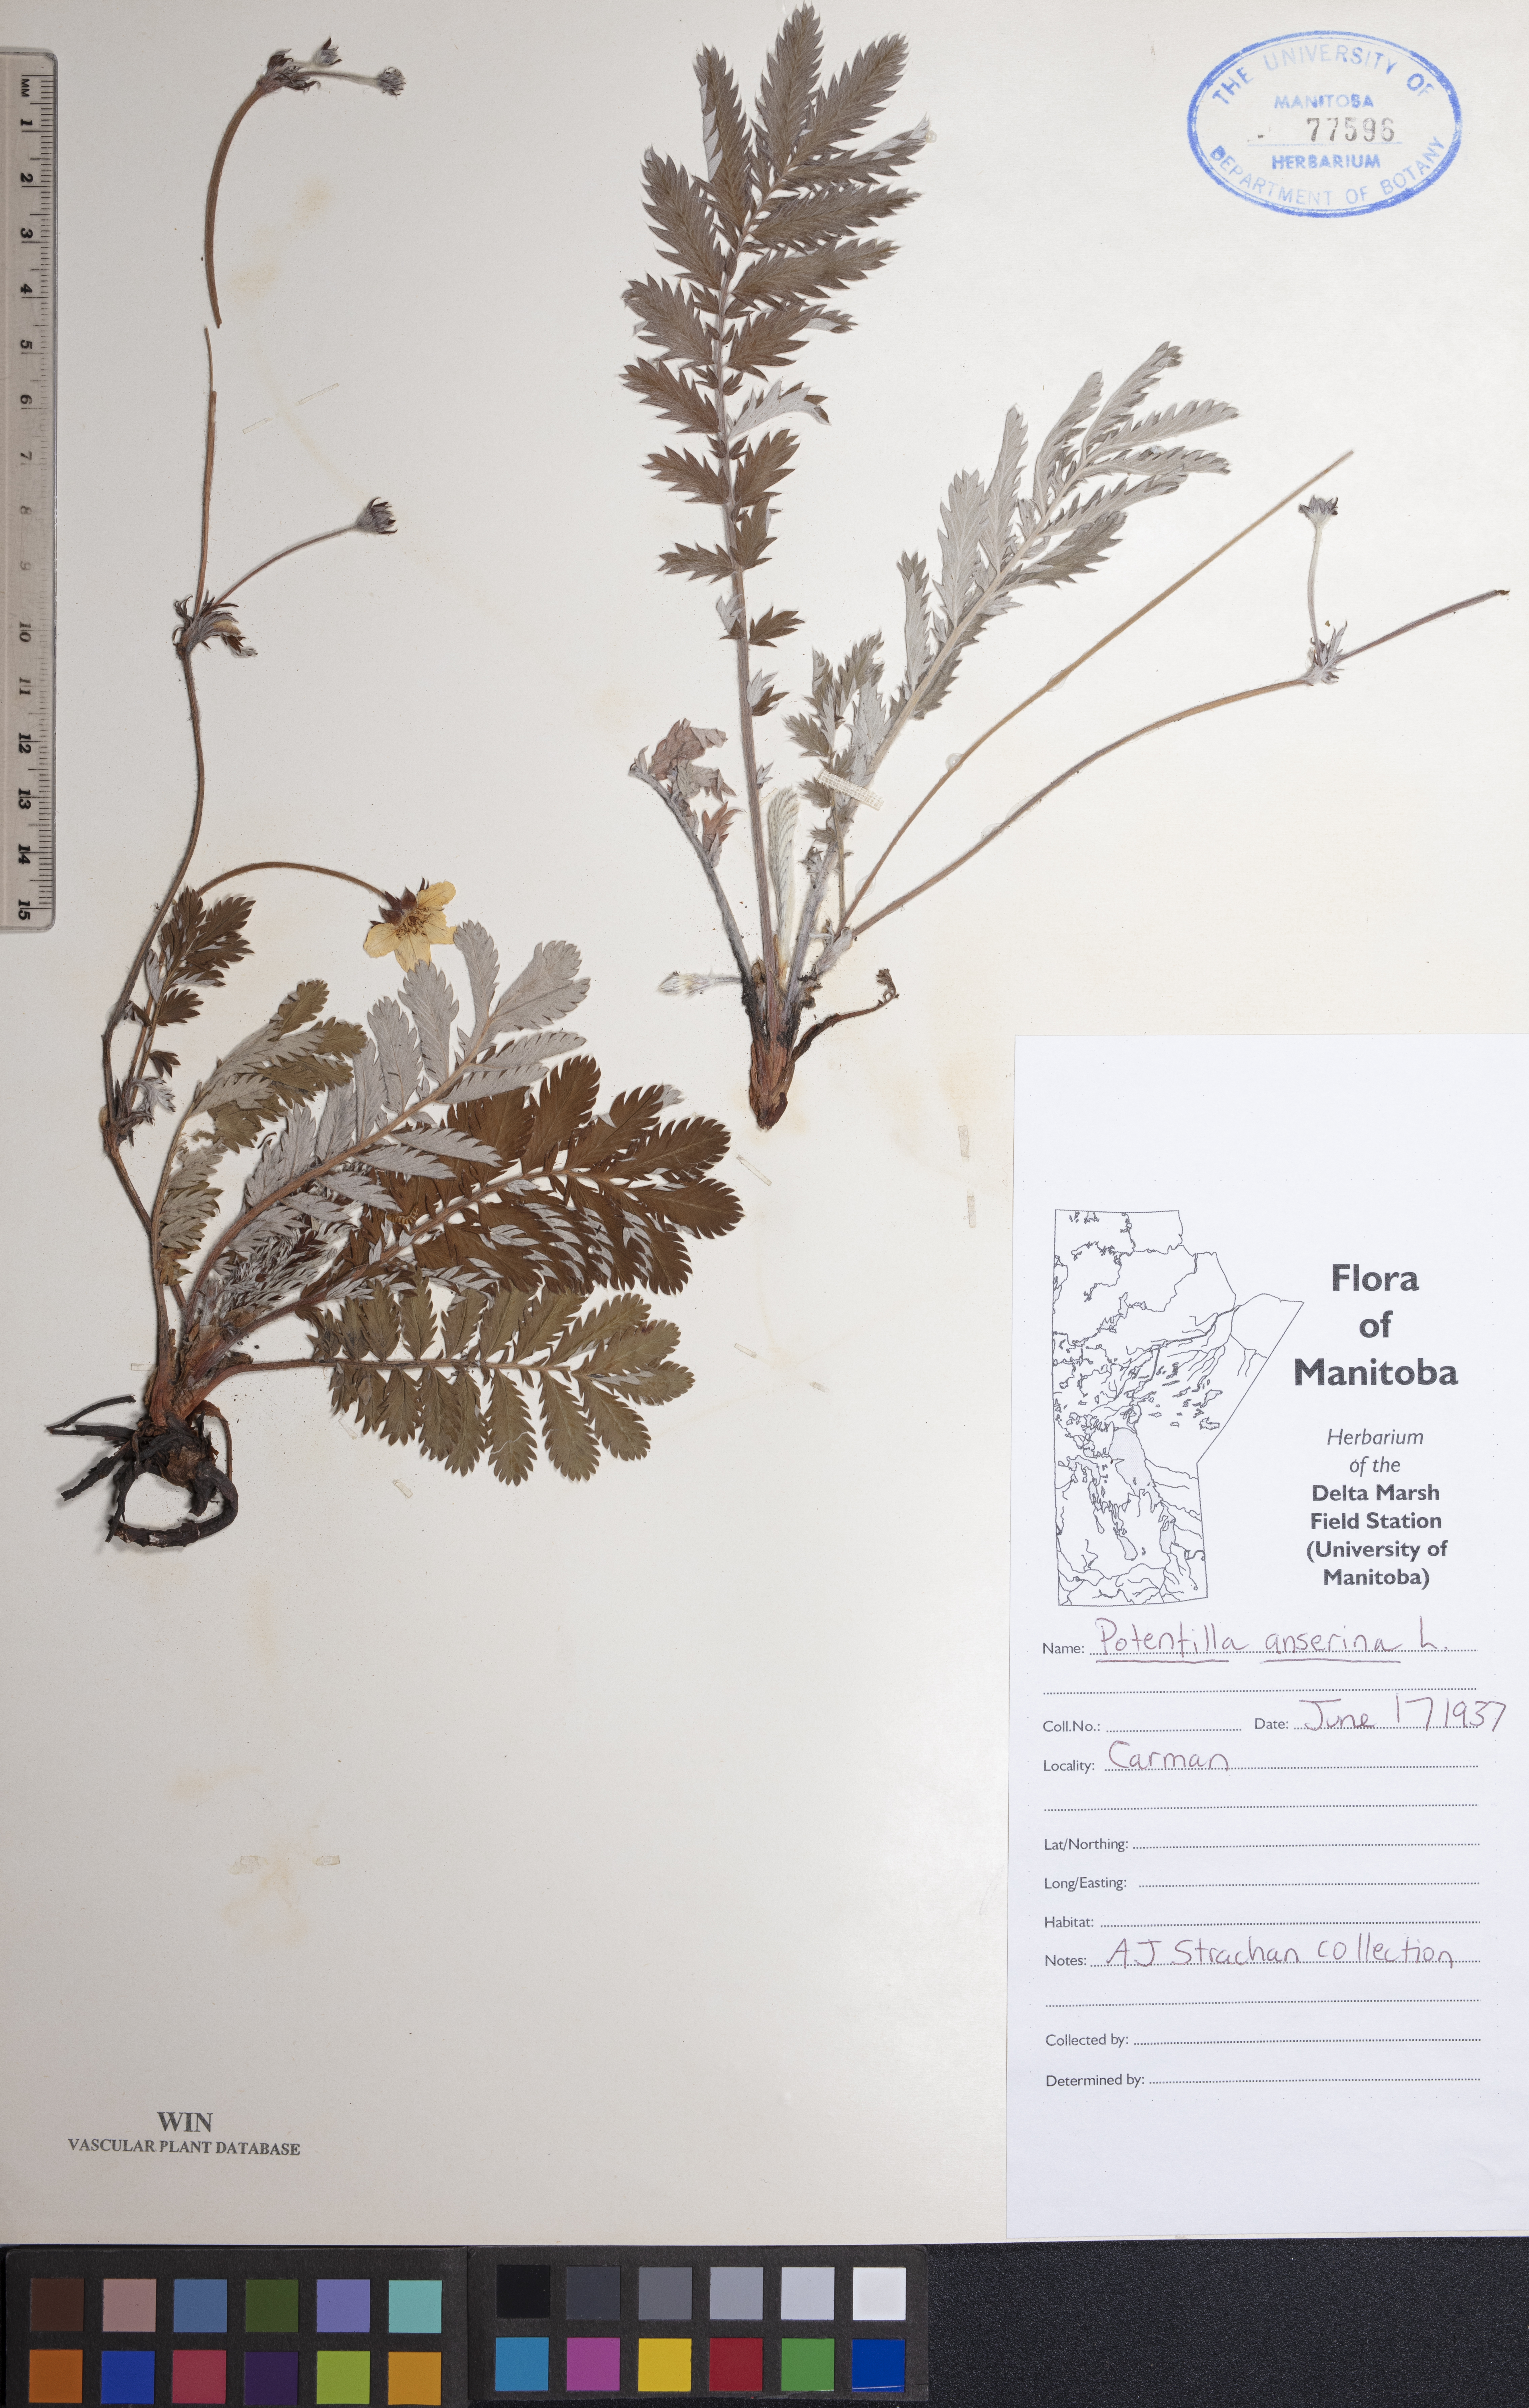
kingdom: Plantae
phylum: Tracheophyta
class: Magnoliopsida
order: Rosales
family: Rosaceae
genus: Argentina
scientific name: Argentina anserina
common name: Common silverweed
